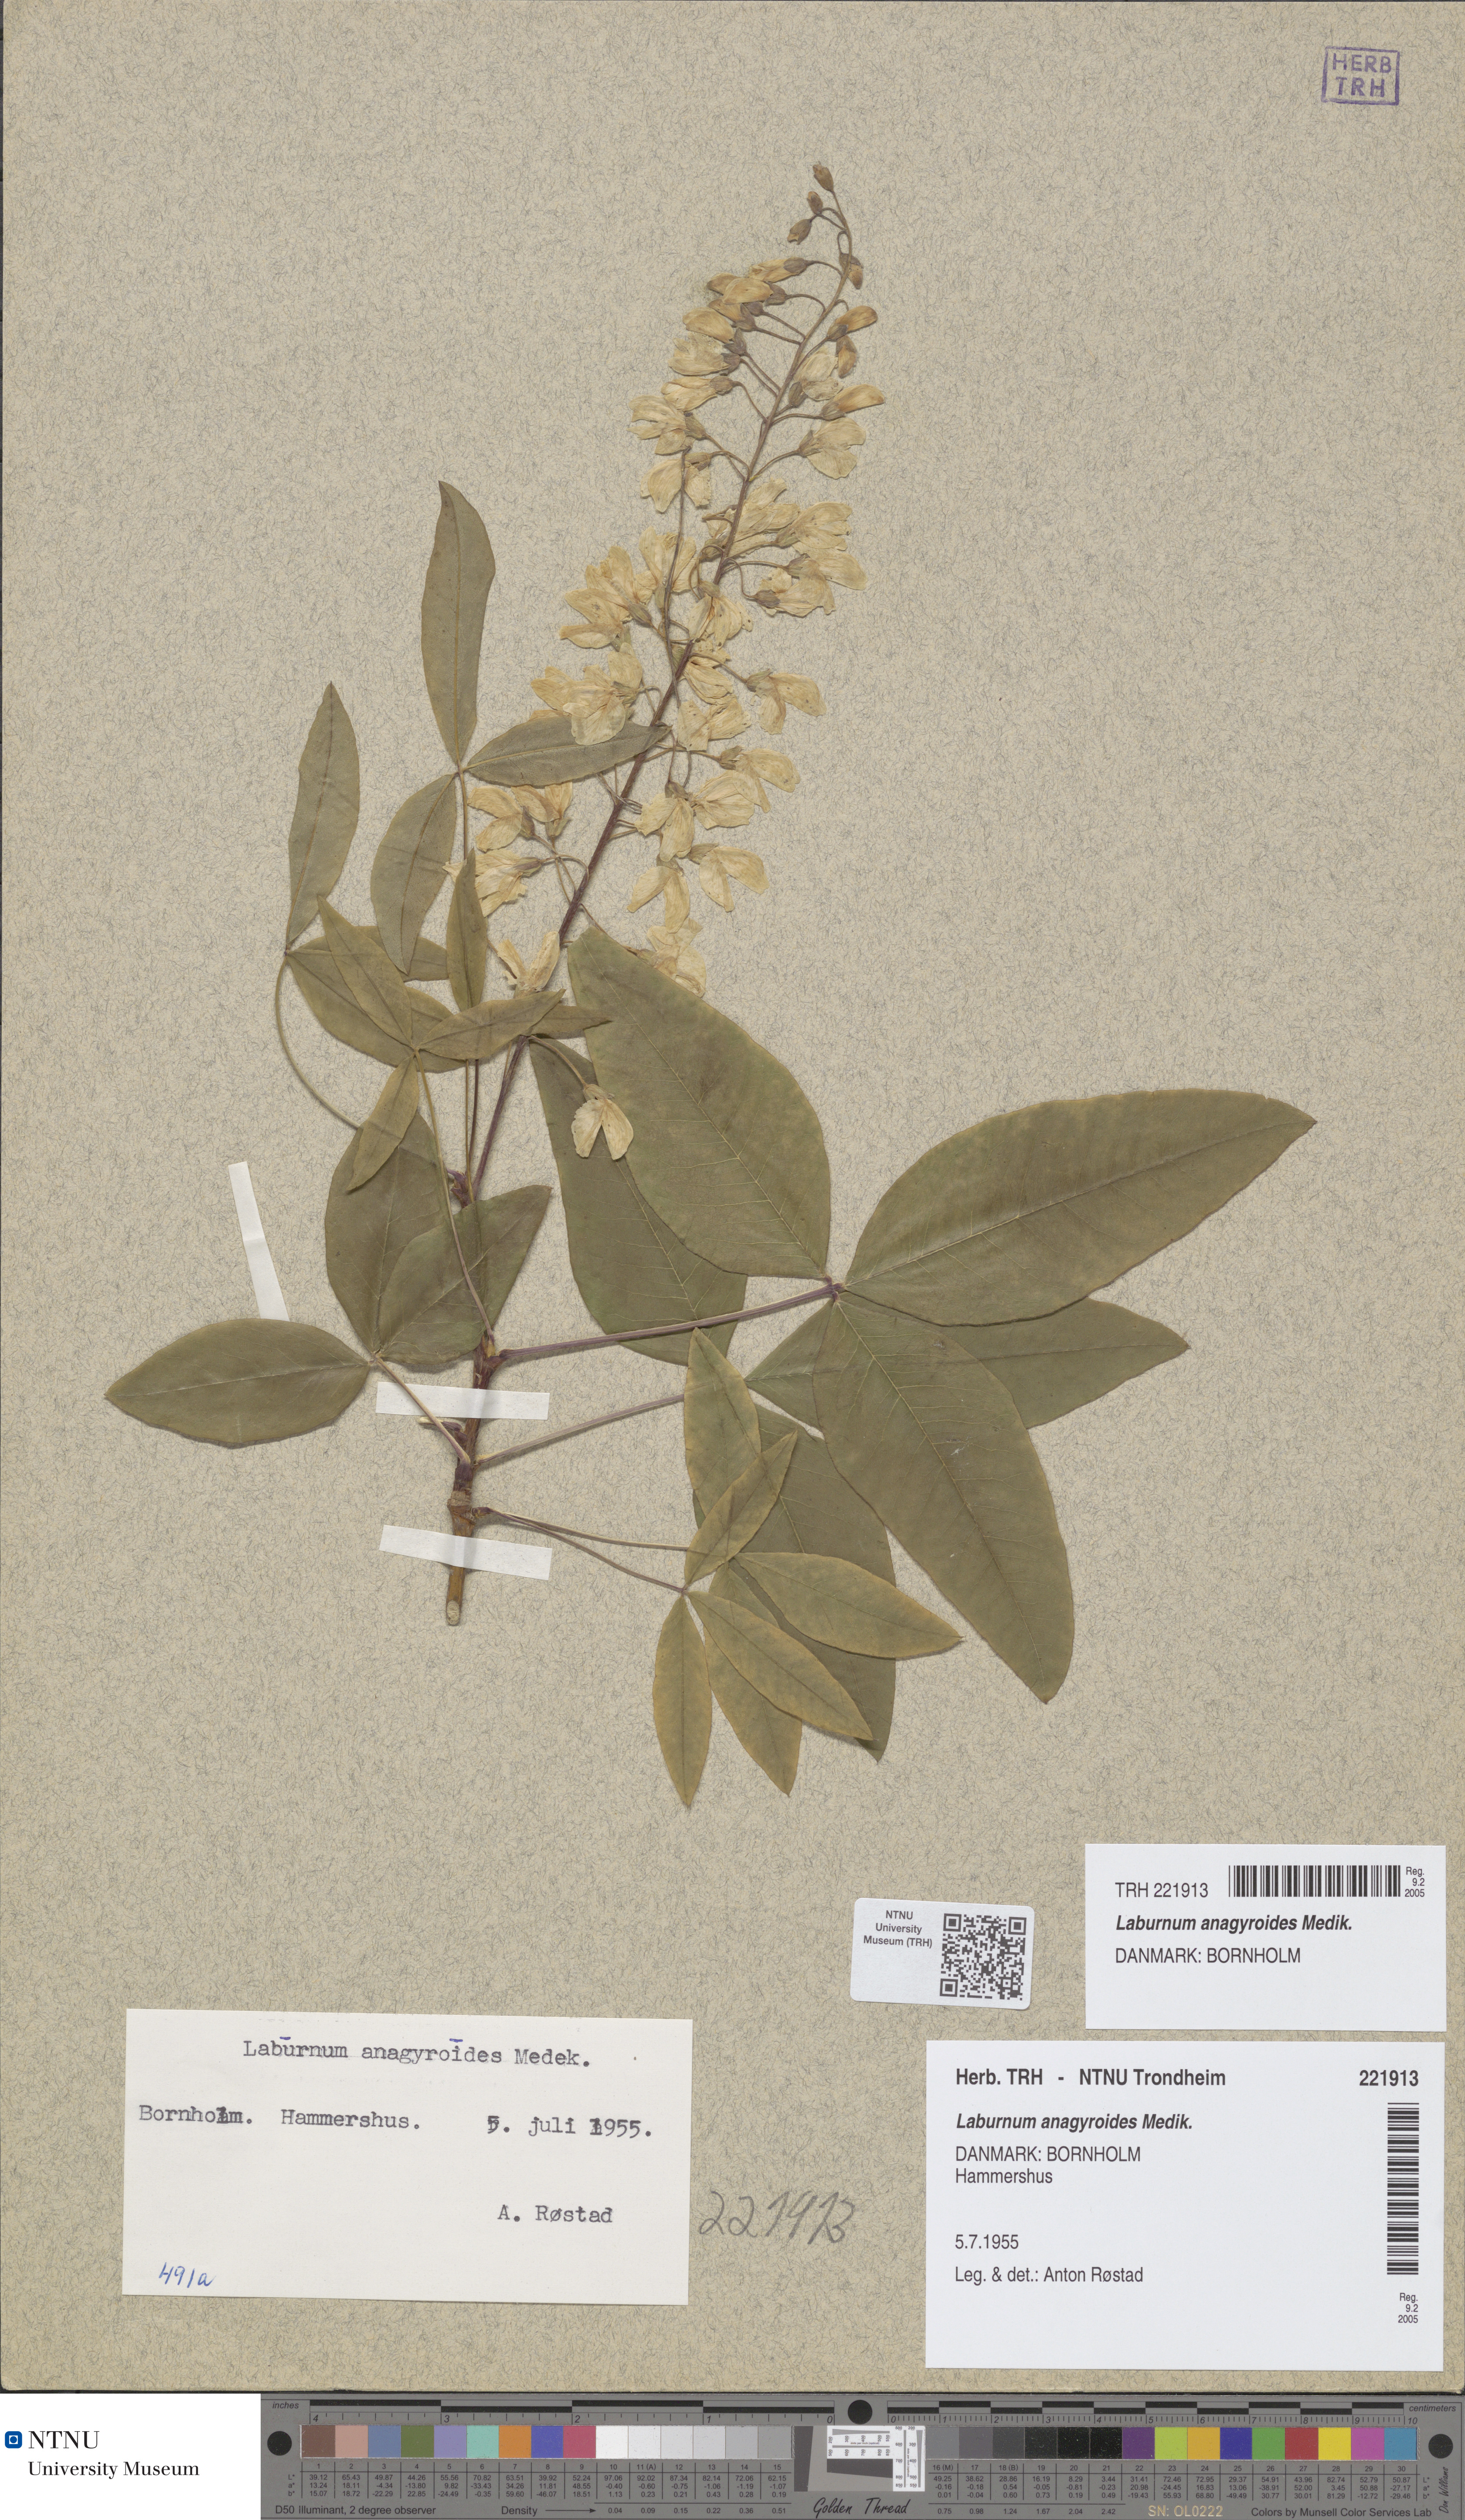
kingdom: Plantae
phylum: Tracheophyta
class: Magnoliopsida
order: Fabales
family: Fabaceae
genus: Laburnum
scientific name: Laburnum anagyroides
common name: Laburnum
